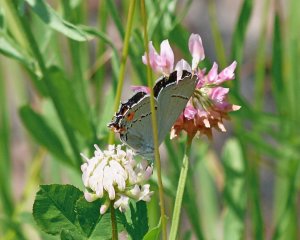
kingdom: Animalia
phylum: Arthropoda
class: Insecta
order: Lepidoptera
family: Lycaenidae
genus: Strymon
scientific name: Strymon melinus
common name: Gray Hairstreak
